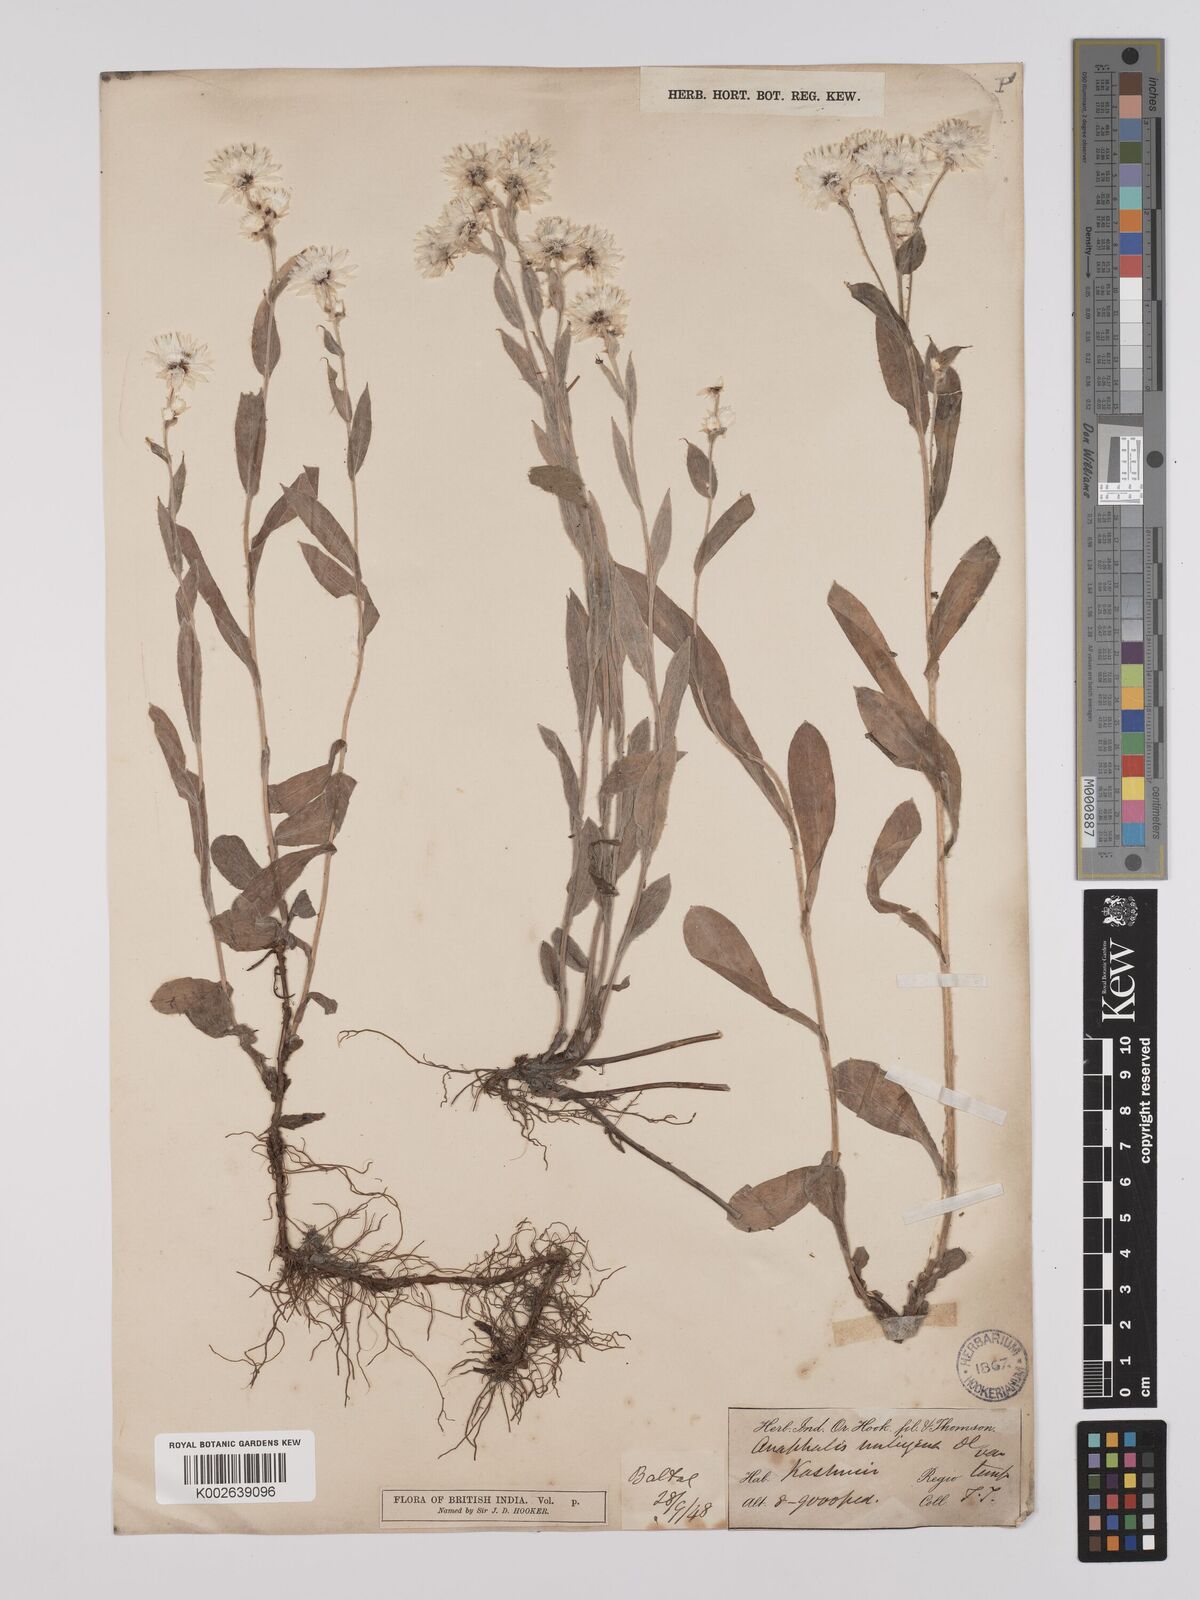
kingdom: Plantae
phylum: Tracheophyta
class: Magnoliopsida
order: Asterales
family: Asteraceae
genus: Anaphalioides
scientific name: Anaphalioides trinervis
